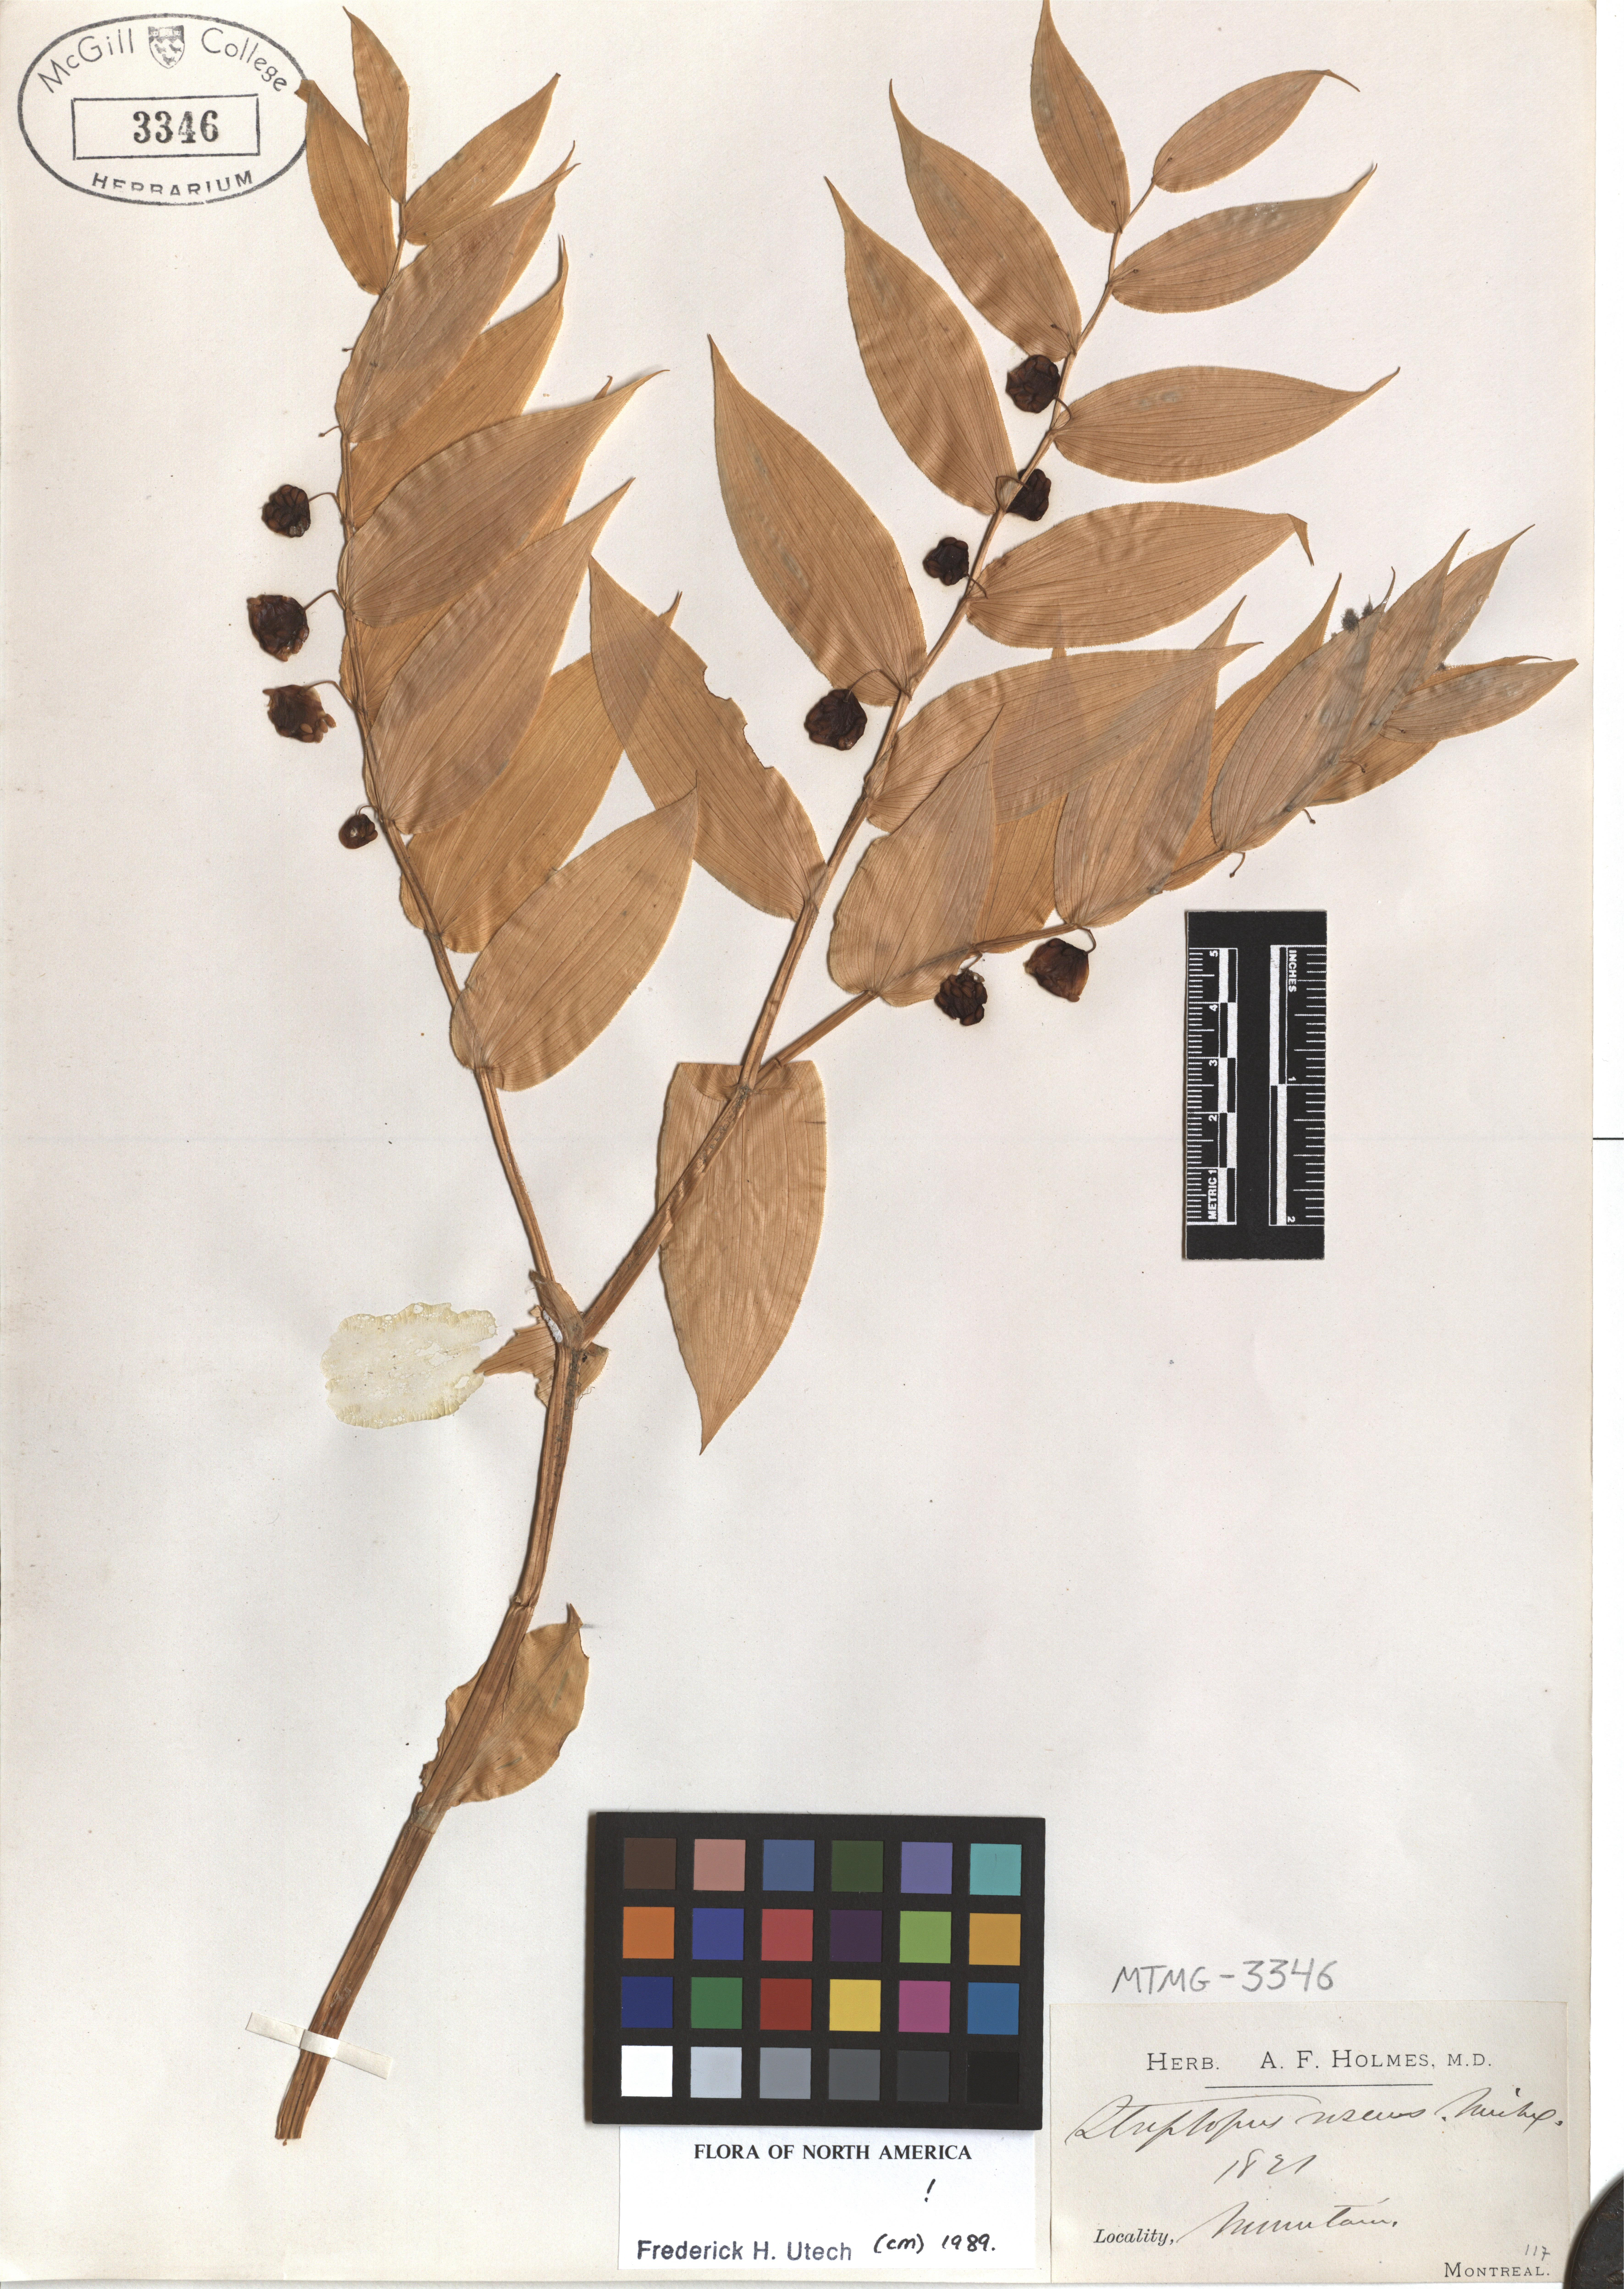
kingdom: Plantae
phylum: Tracheophyta
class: Liliopsida
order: Liliales
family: Liliaceae
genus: Streptopus
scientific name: Streptopus lanceolatus
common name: Rose mandarin
